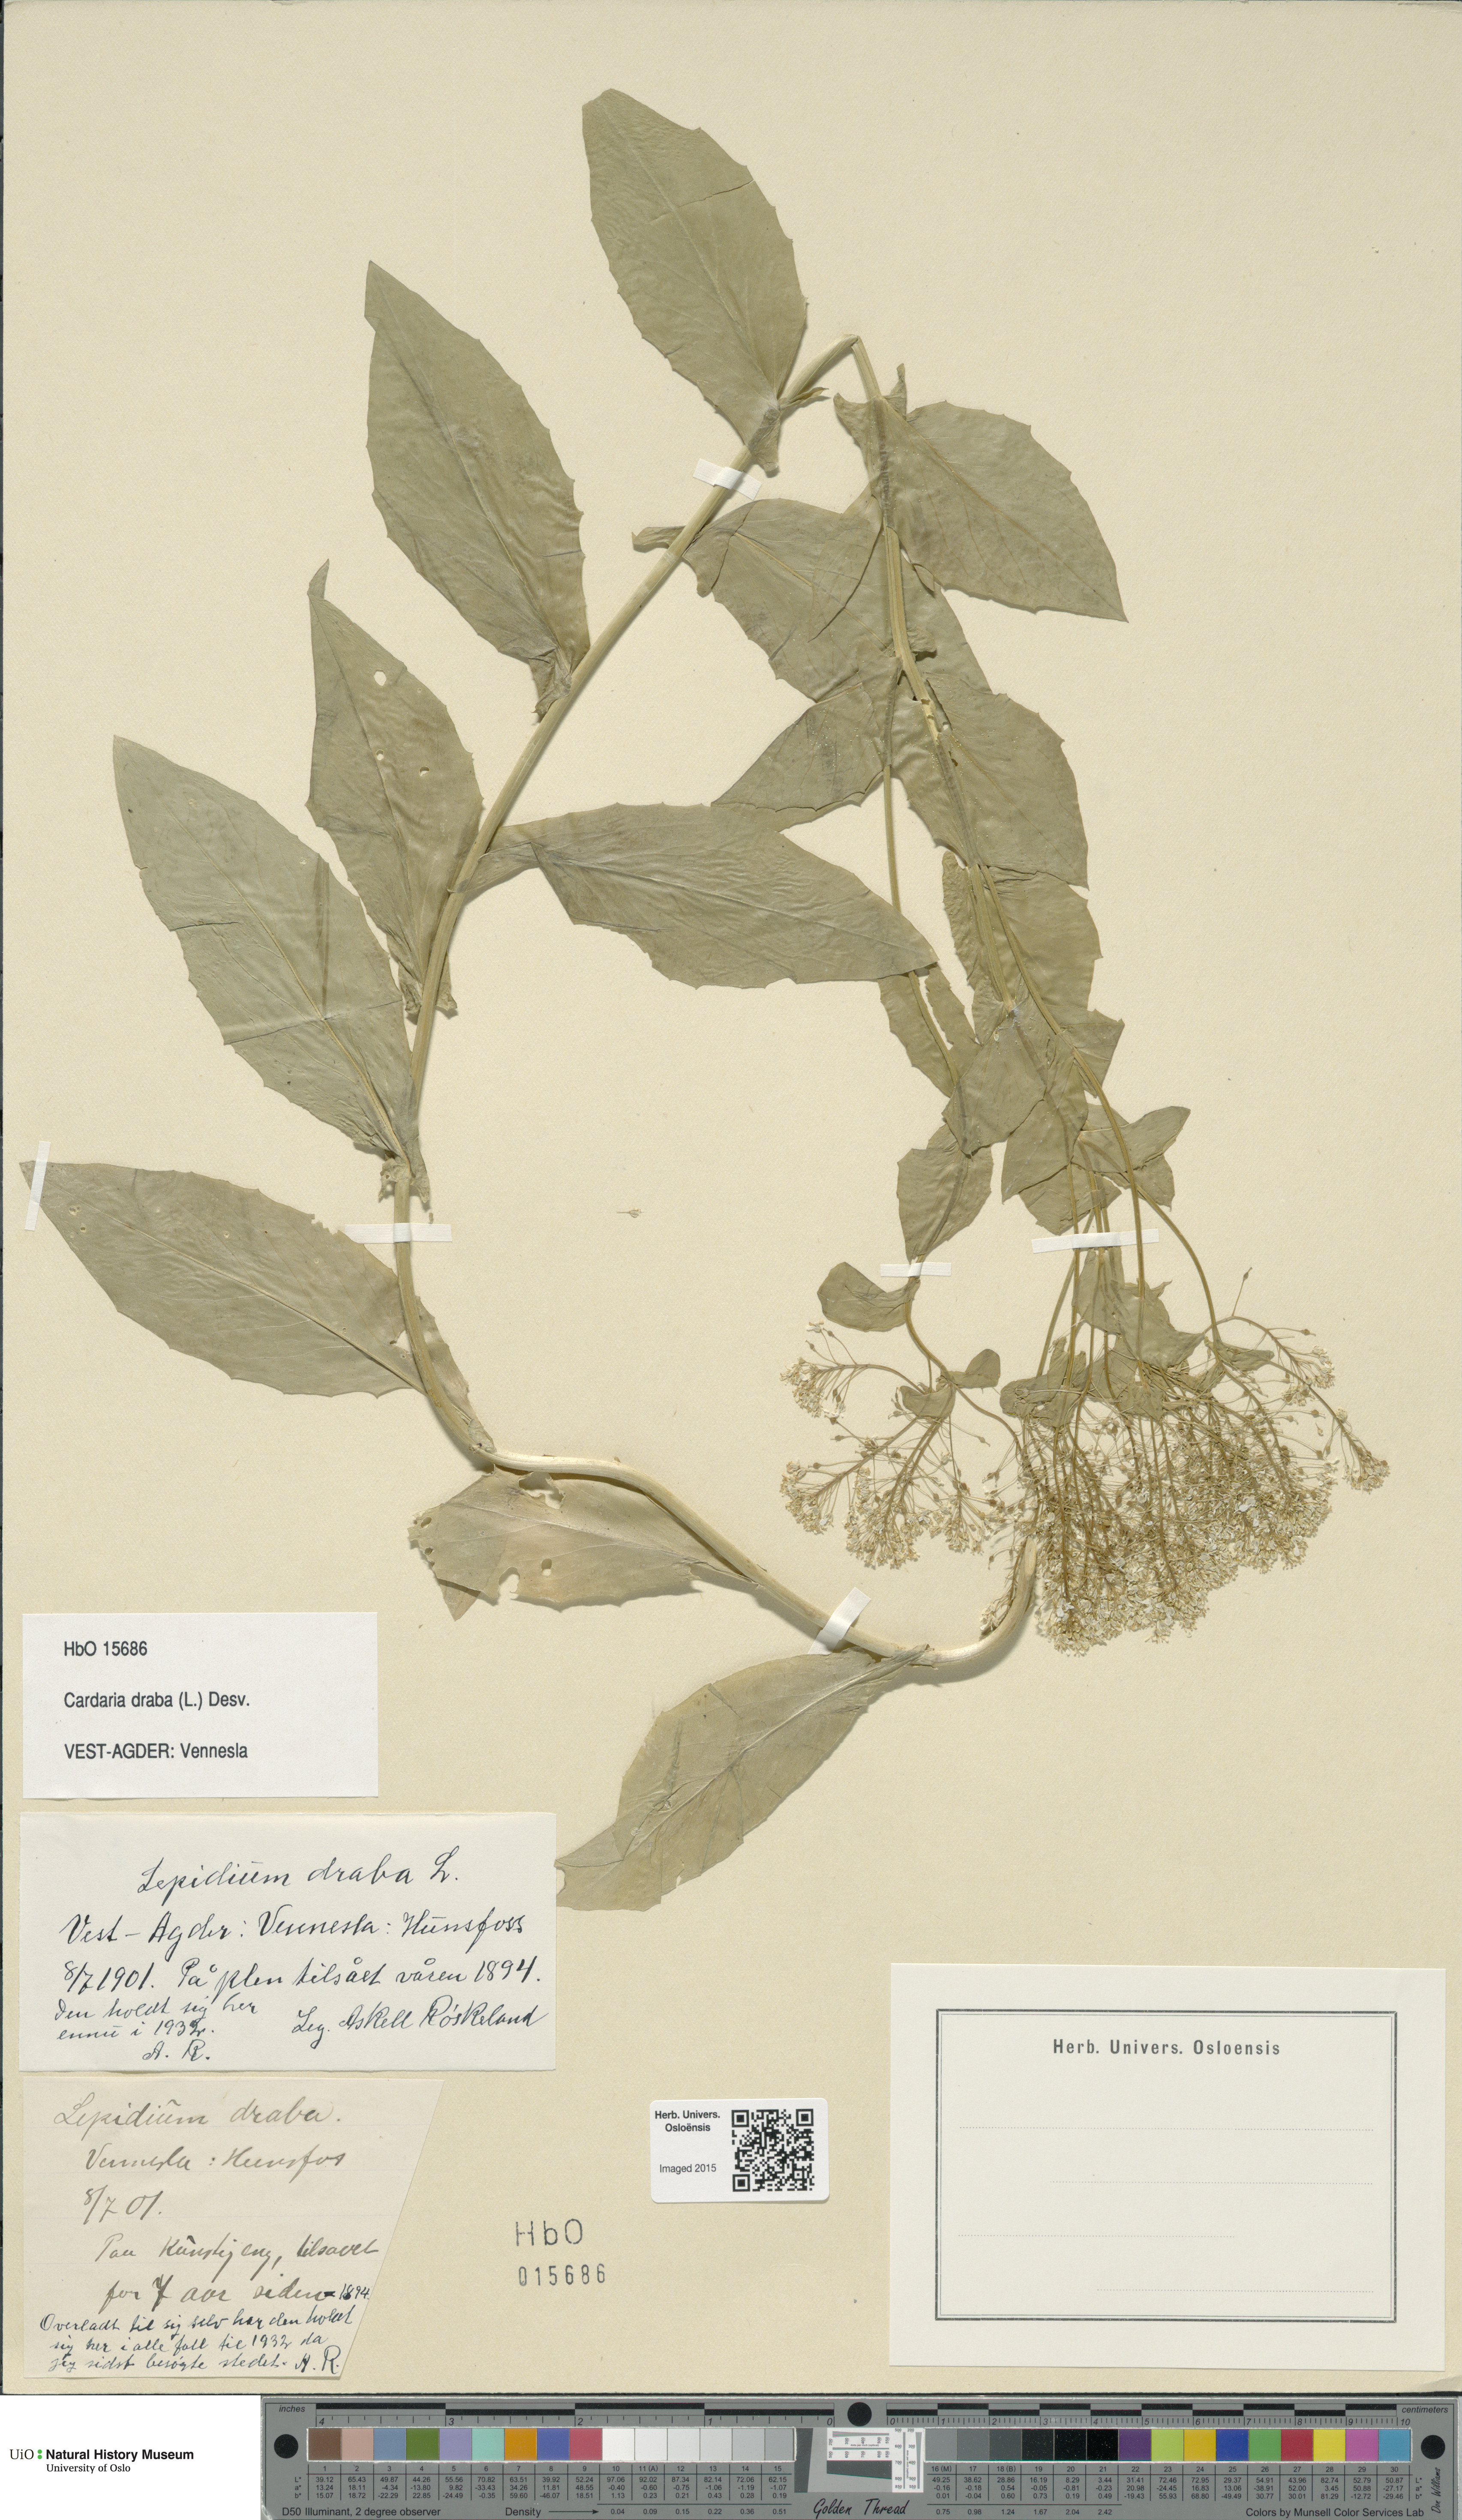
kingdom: Plantae
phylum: Tracheophyta
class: Magnoliopsida
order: Brassicales
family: Brassicaceae
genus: Lepidium
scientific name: Lepidium draba
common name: Hoary cress
